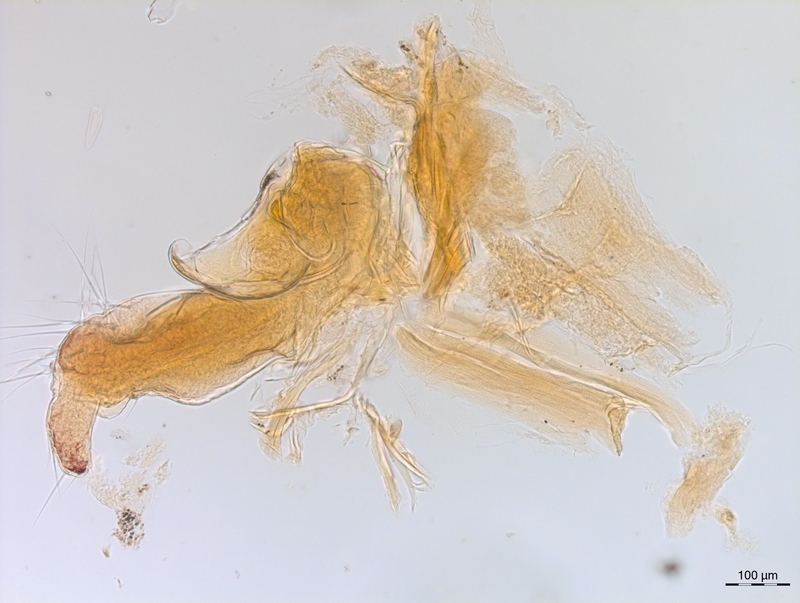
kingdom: Animalia
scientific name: Animalia
